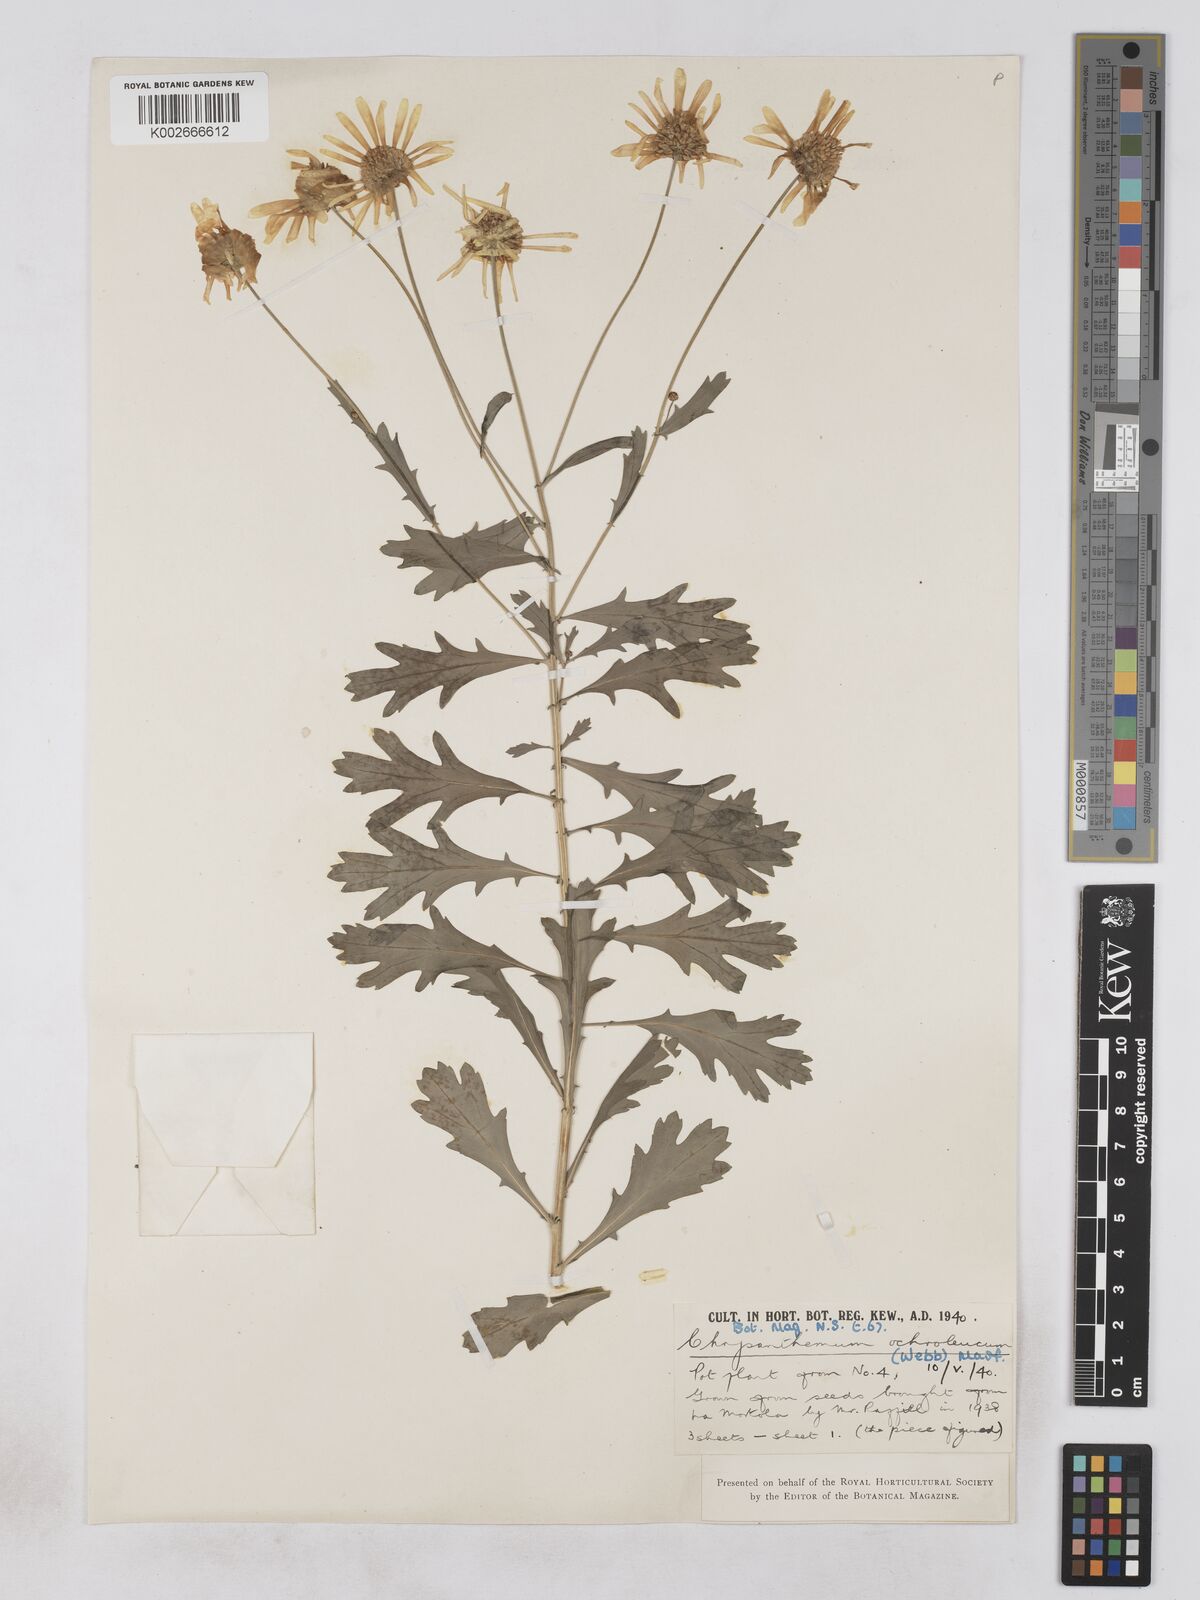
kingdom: Plantae
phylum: Tracheophyta
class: Magnoliopsida
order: Asterales
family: Asteraceae
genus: Argyranthemum
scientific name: Argyranthemum maderense
